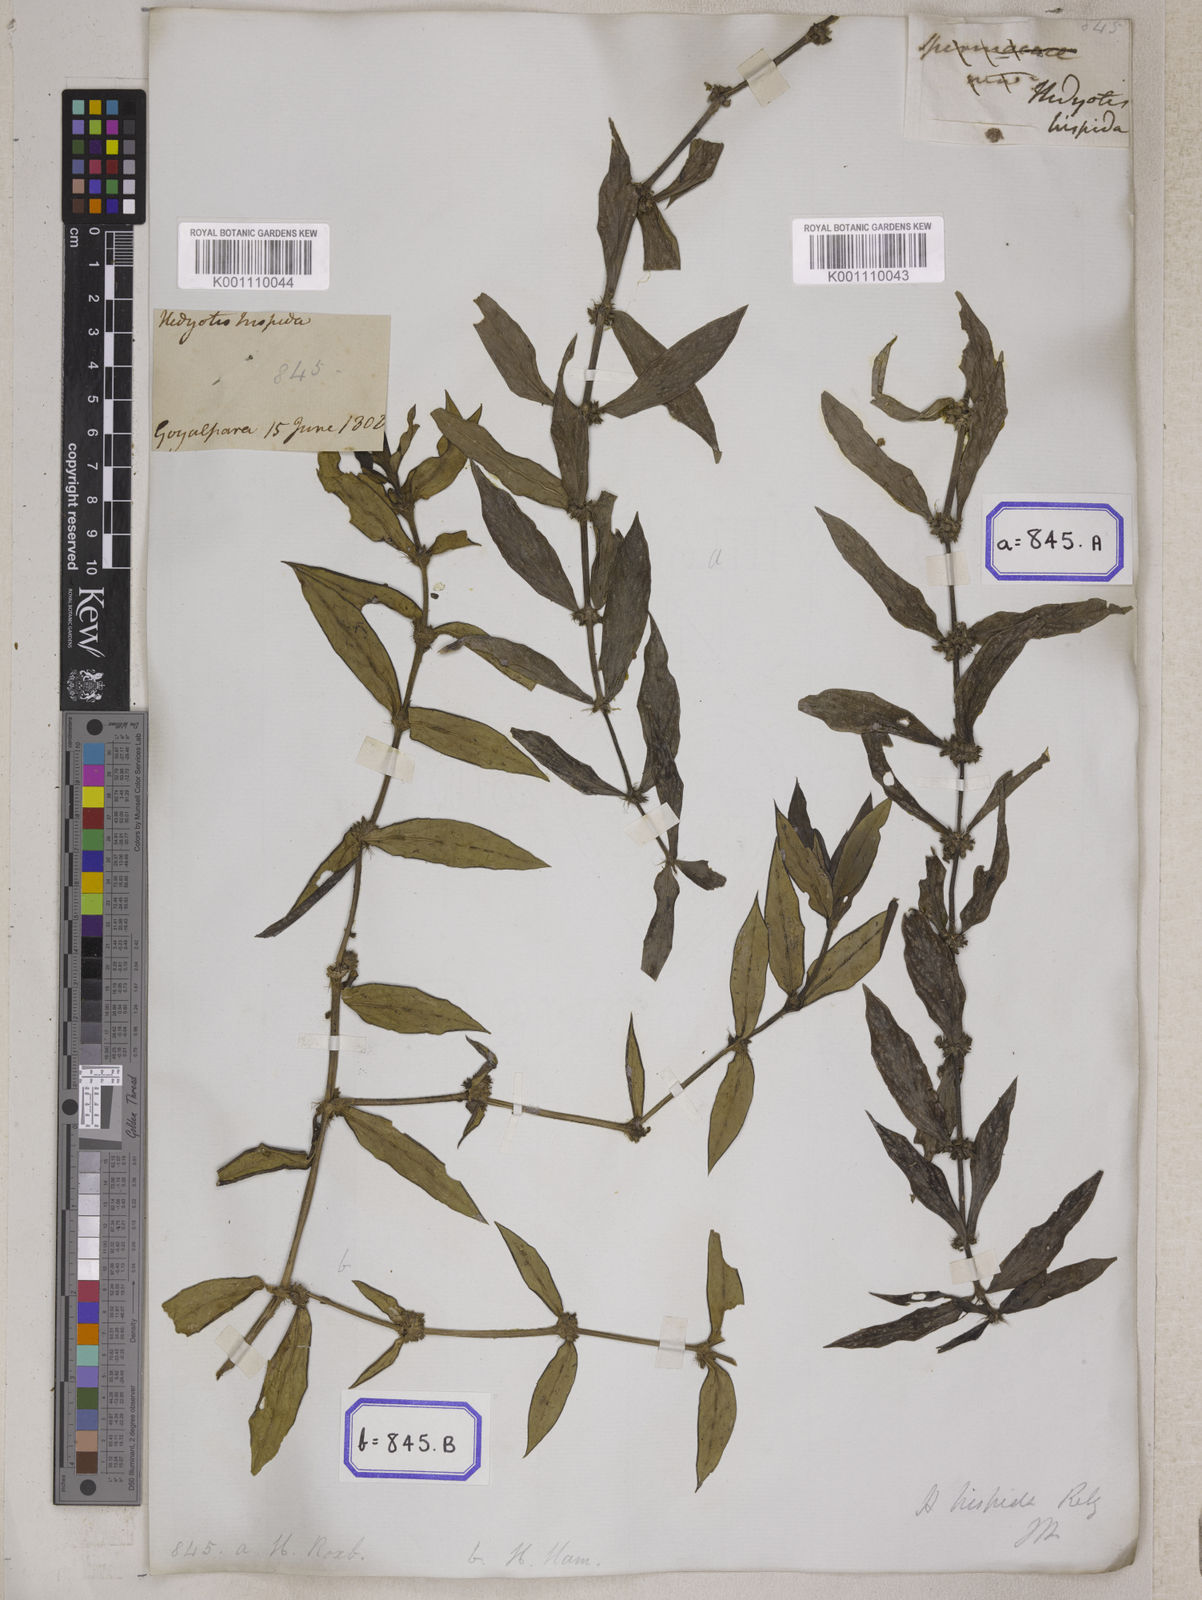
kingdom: Plantae
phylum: Tracheophyta
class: Magnoliopsida
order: Gentianales
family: Rubiaceae
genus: Scleromitrion
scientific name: Scleromitrion verticillatum
